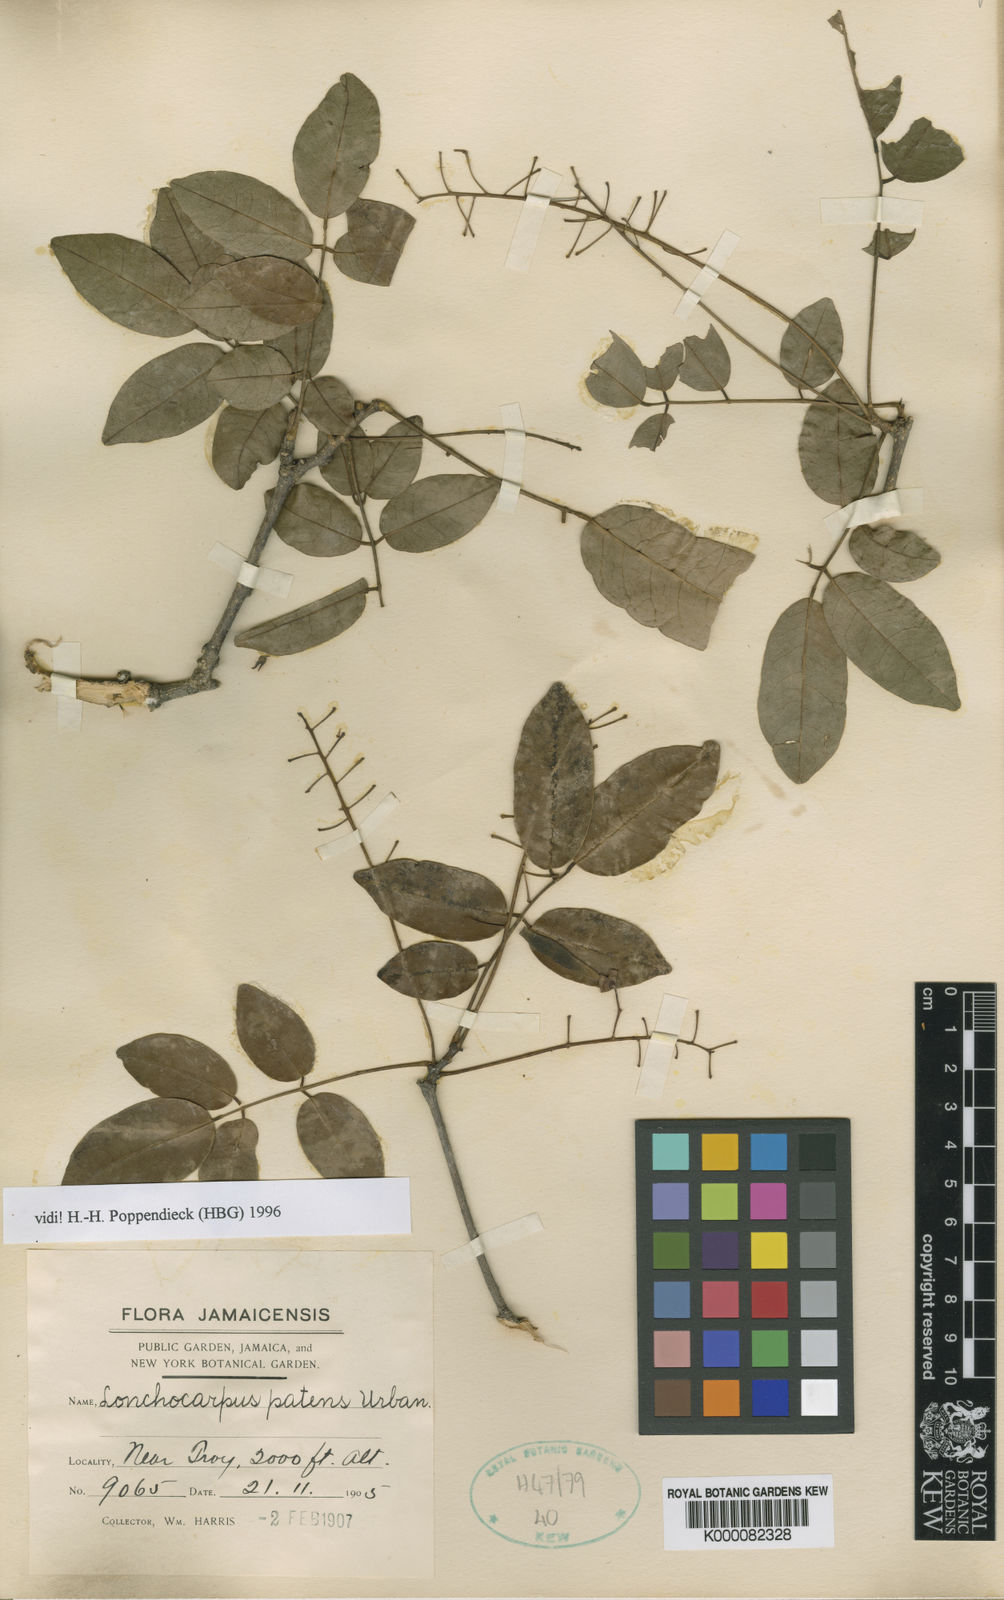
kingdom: Plantae
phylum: Tracheophyta
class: Magnoliopsida
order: Fabales
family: Fabaceae
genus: Lonchocarpus
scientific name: Lonchocarpus patens
